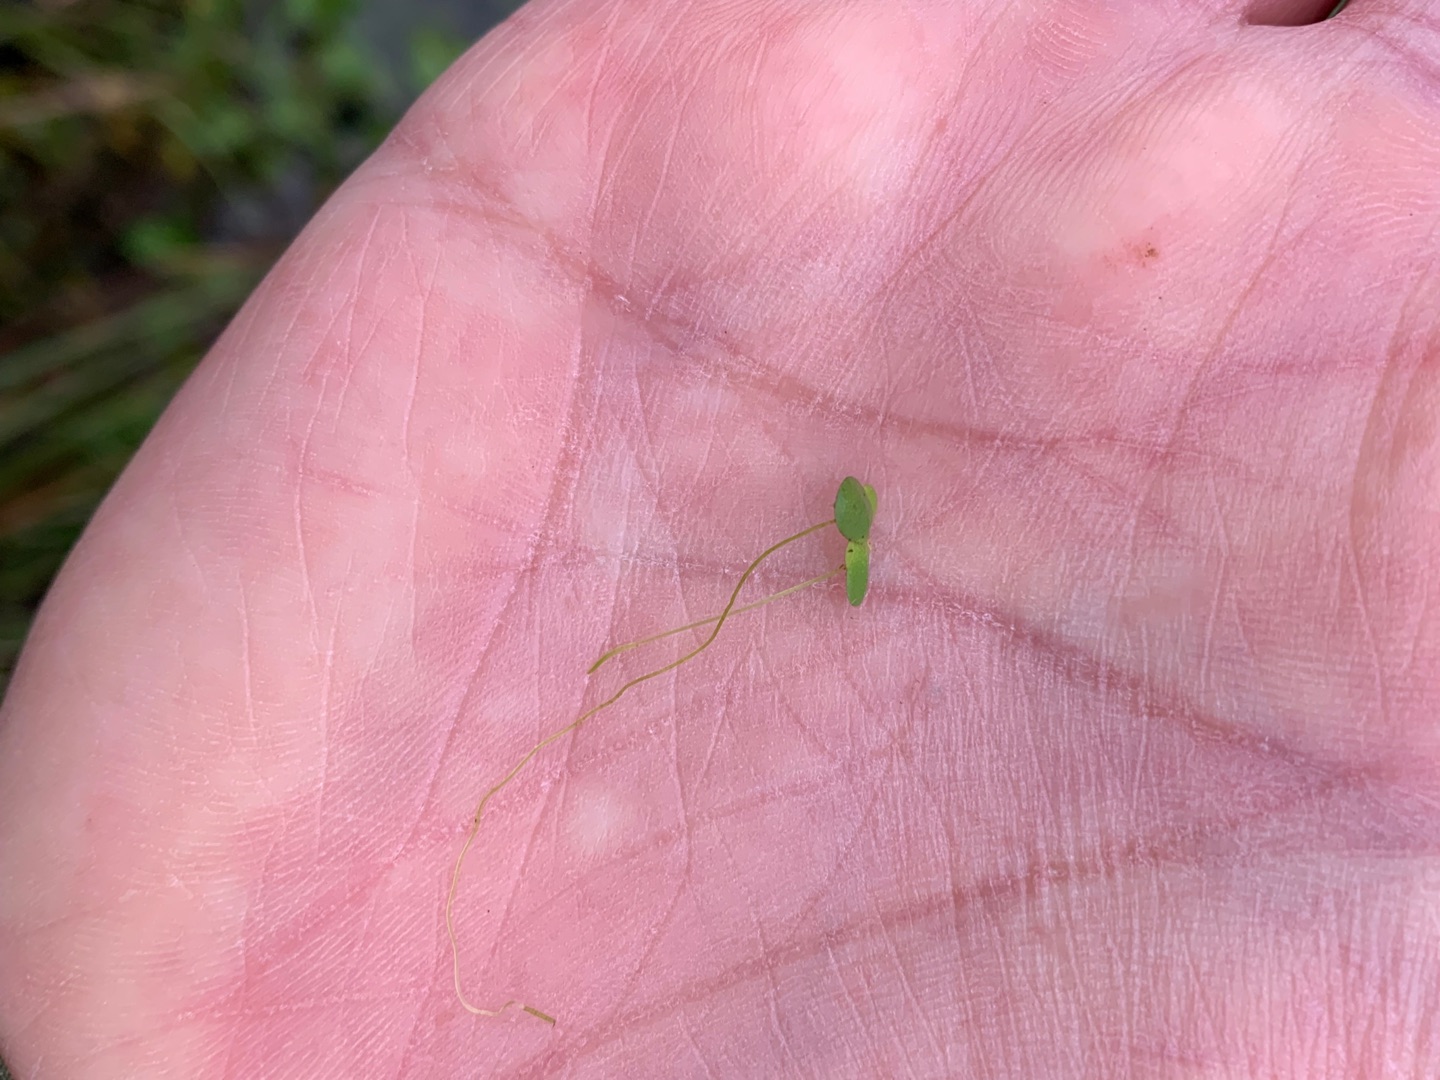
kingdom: Plantae
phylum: Tracheophyta
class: Liliopsida
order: Alismatales
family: Araceae
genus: Lemna
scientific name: Lemna minor
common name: Liden andemad
